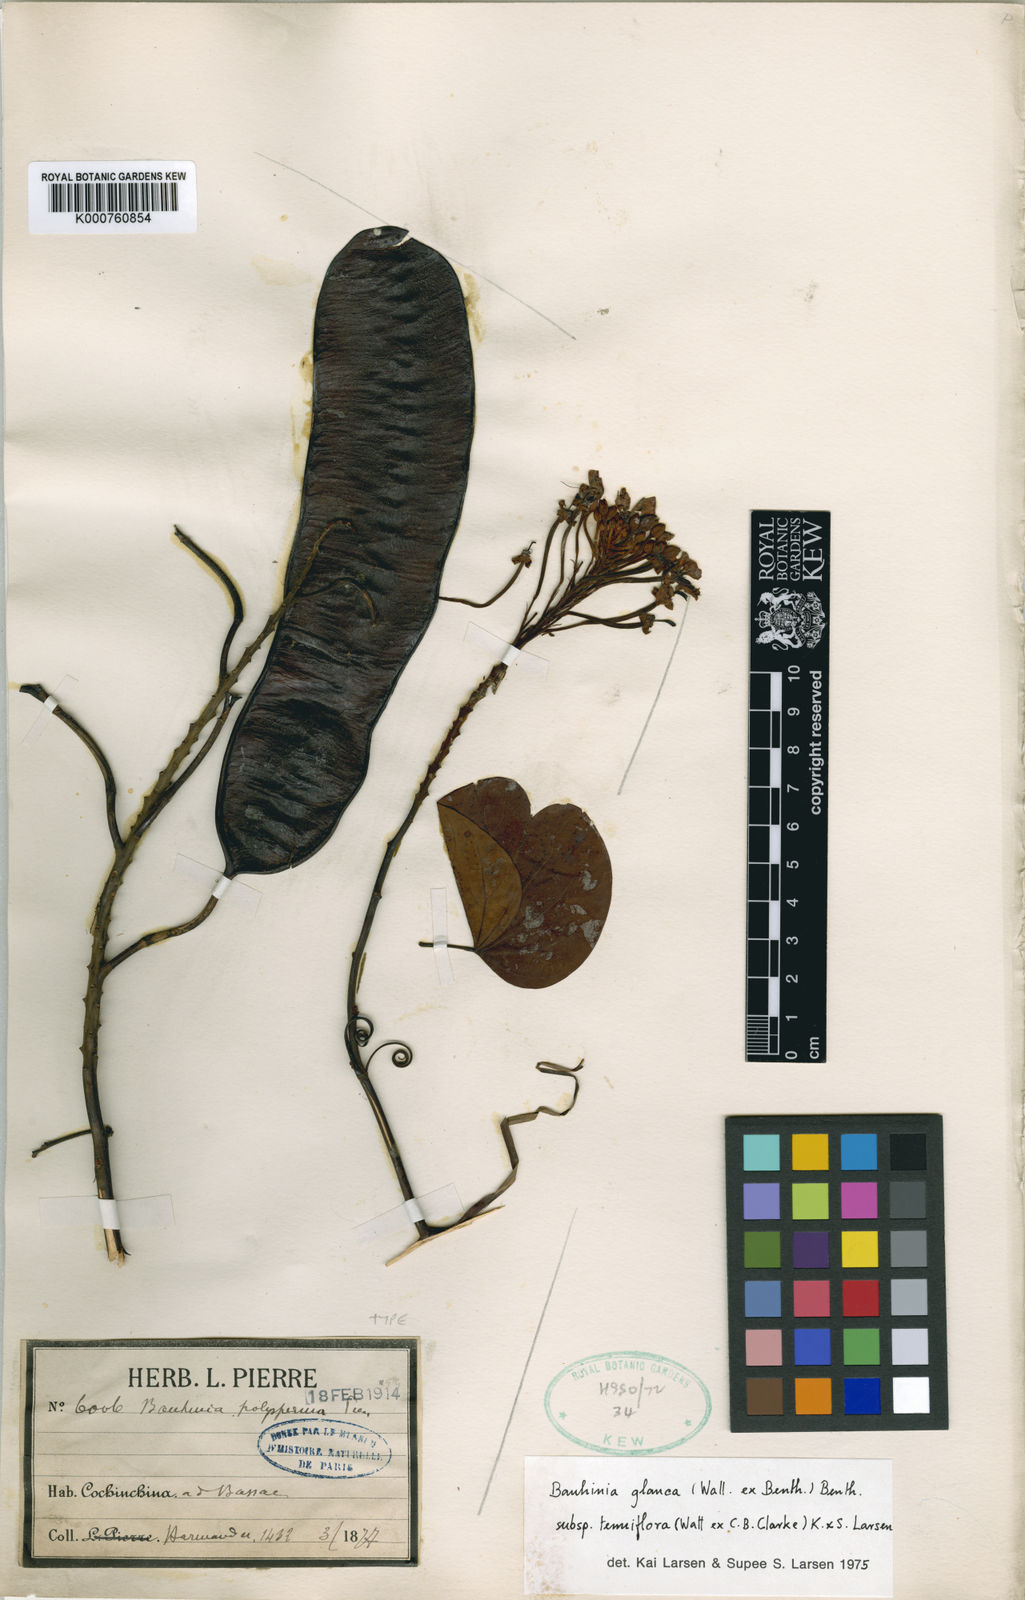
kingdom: Plantae
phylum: Tracheophyta
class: Magnoliopsida
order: Fabales
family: Fabaceae
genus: Cheniella
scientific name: Cheniella tenuiflora
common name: Bauhinia
